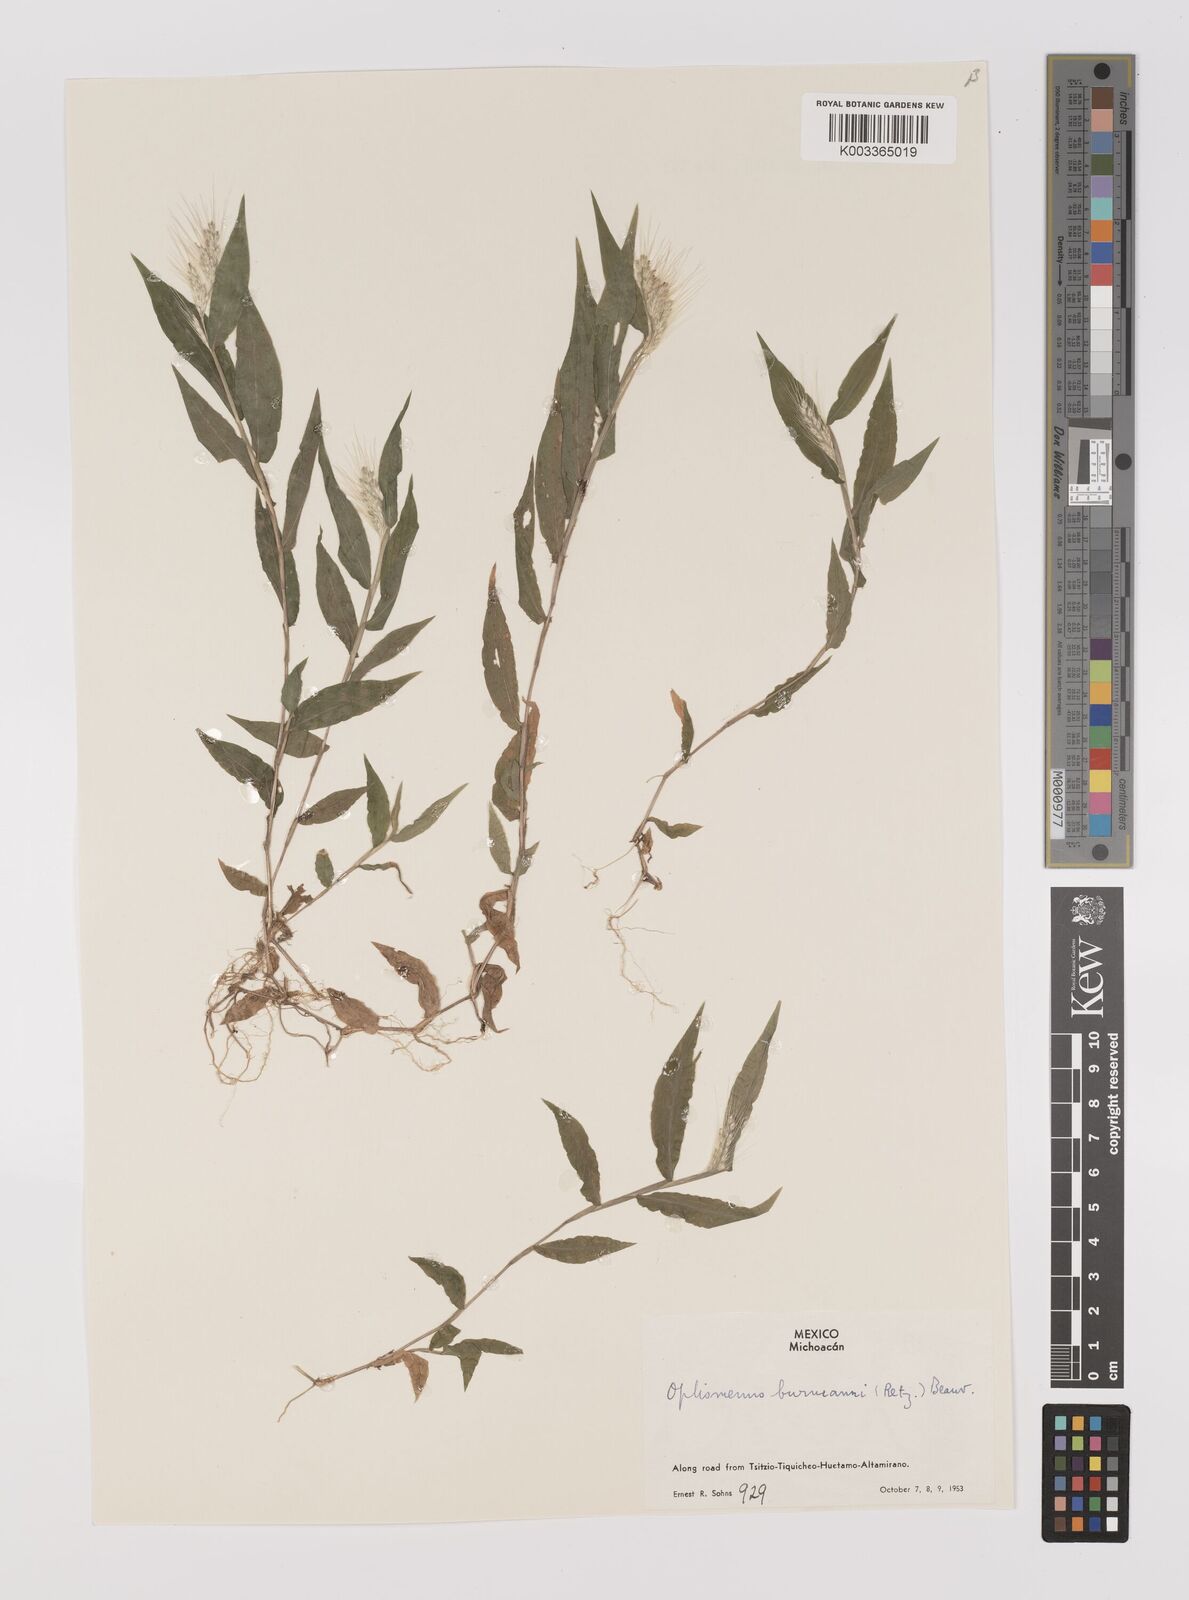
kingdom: Plantae
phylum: Tracheophyta
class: Liliopsida
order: Poales
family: Poaceae
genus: Oplismenus
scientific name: Oplismenus burmanni
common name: Burmann's basketgrass
